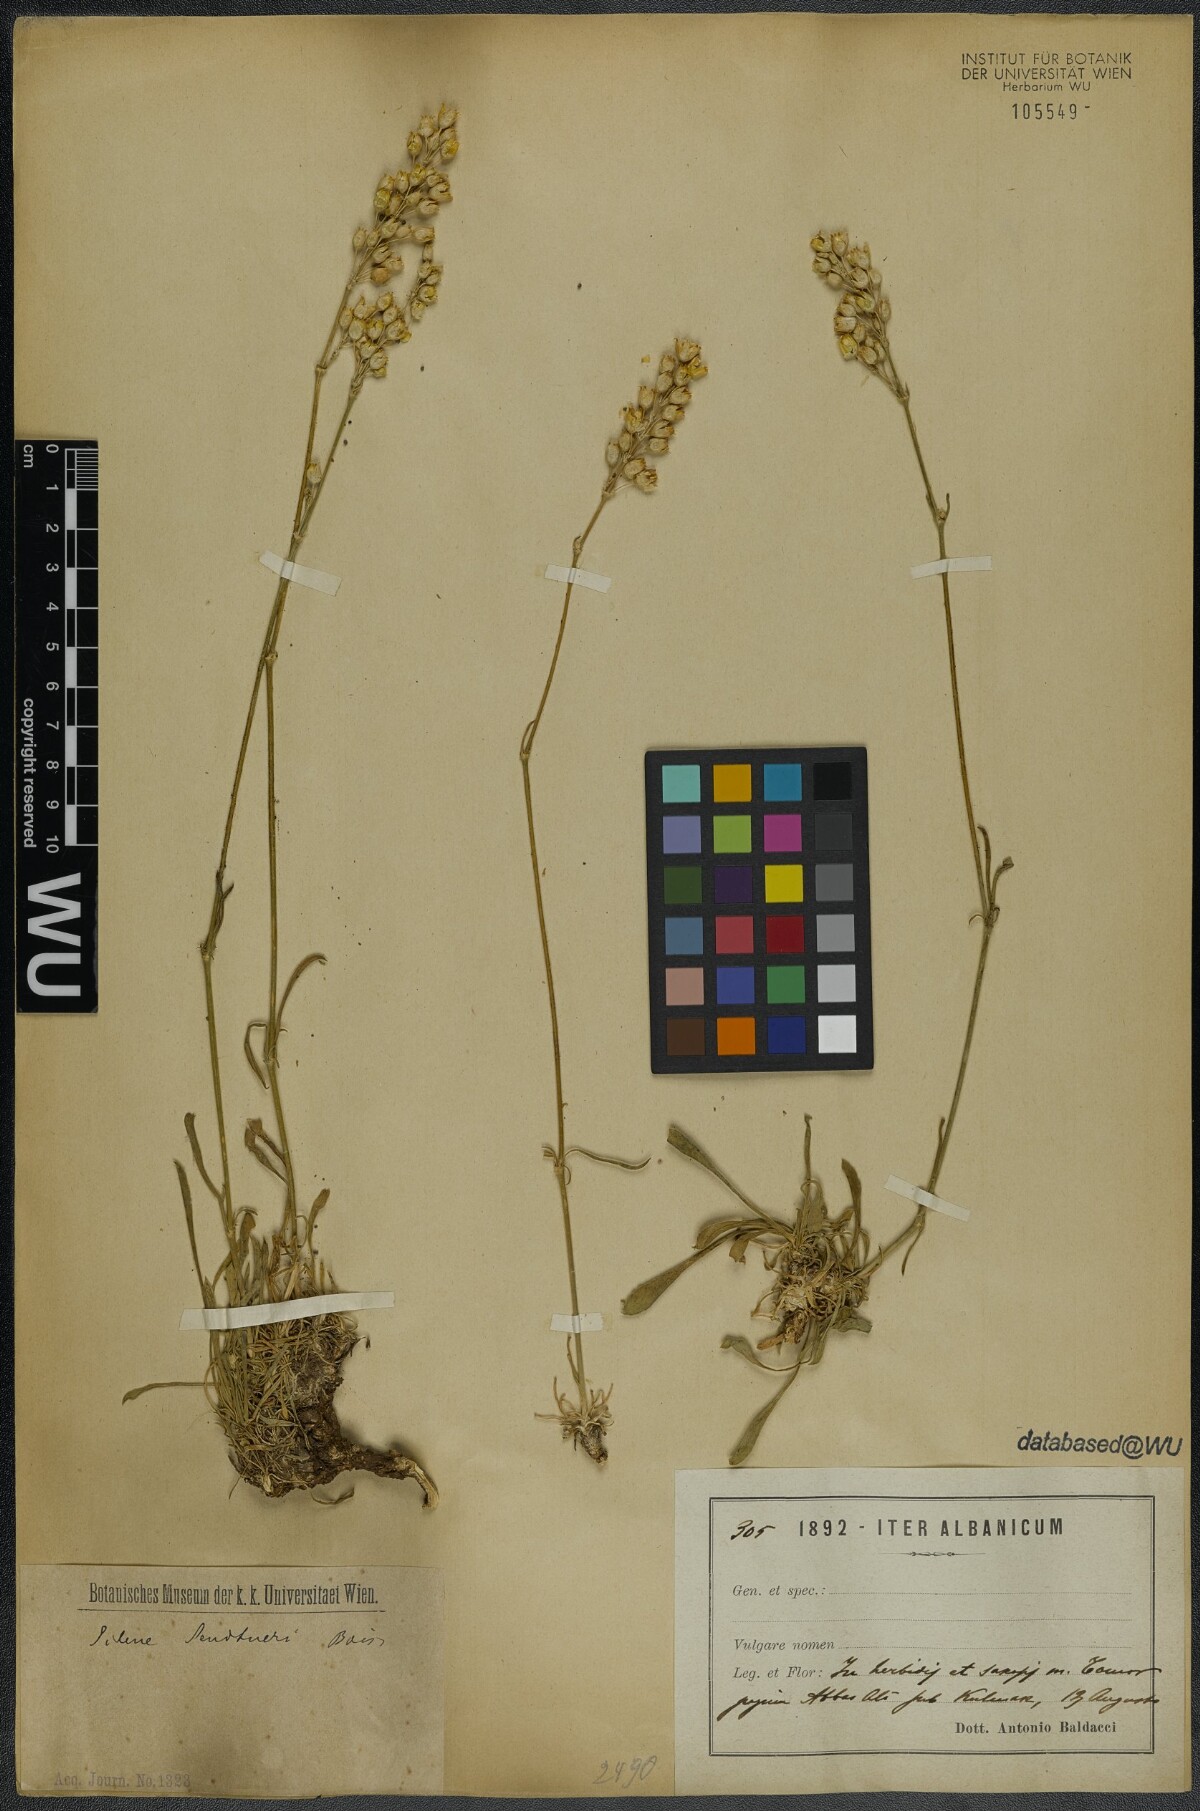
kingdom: Plantae
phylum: Tracheophyta
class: Magnoliopsida
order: Caryophyllales
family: Caryophyllaceae
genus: Silene
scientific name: Silene sendtneri
